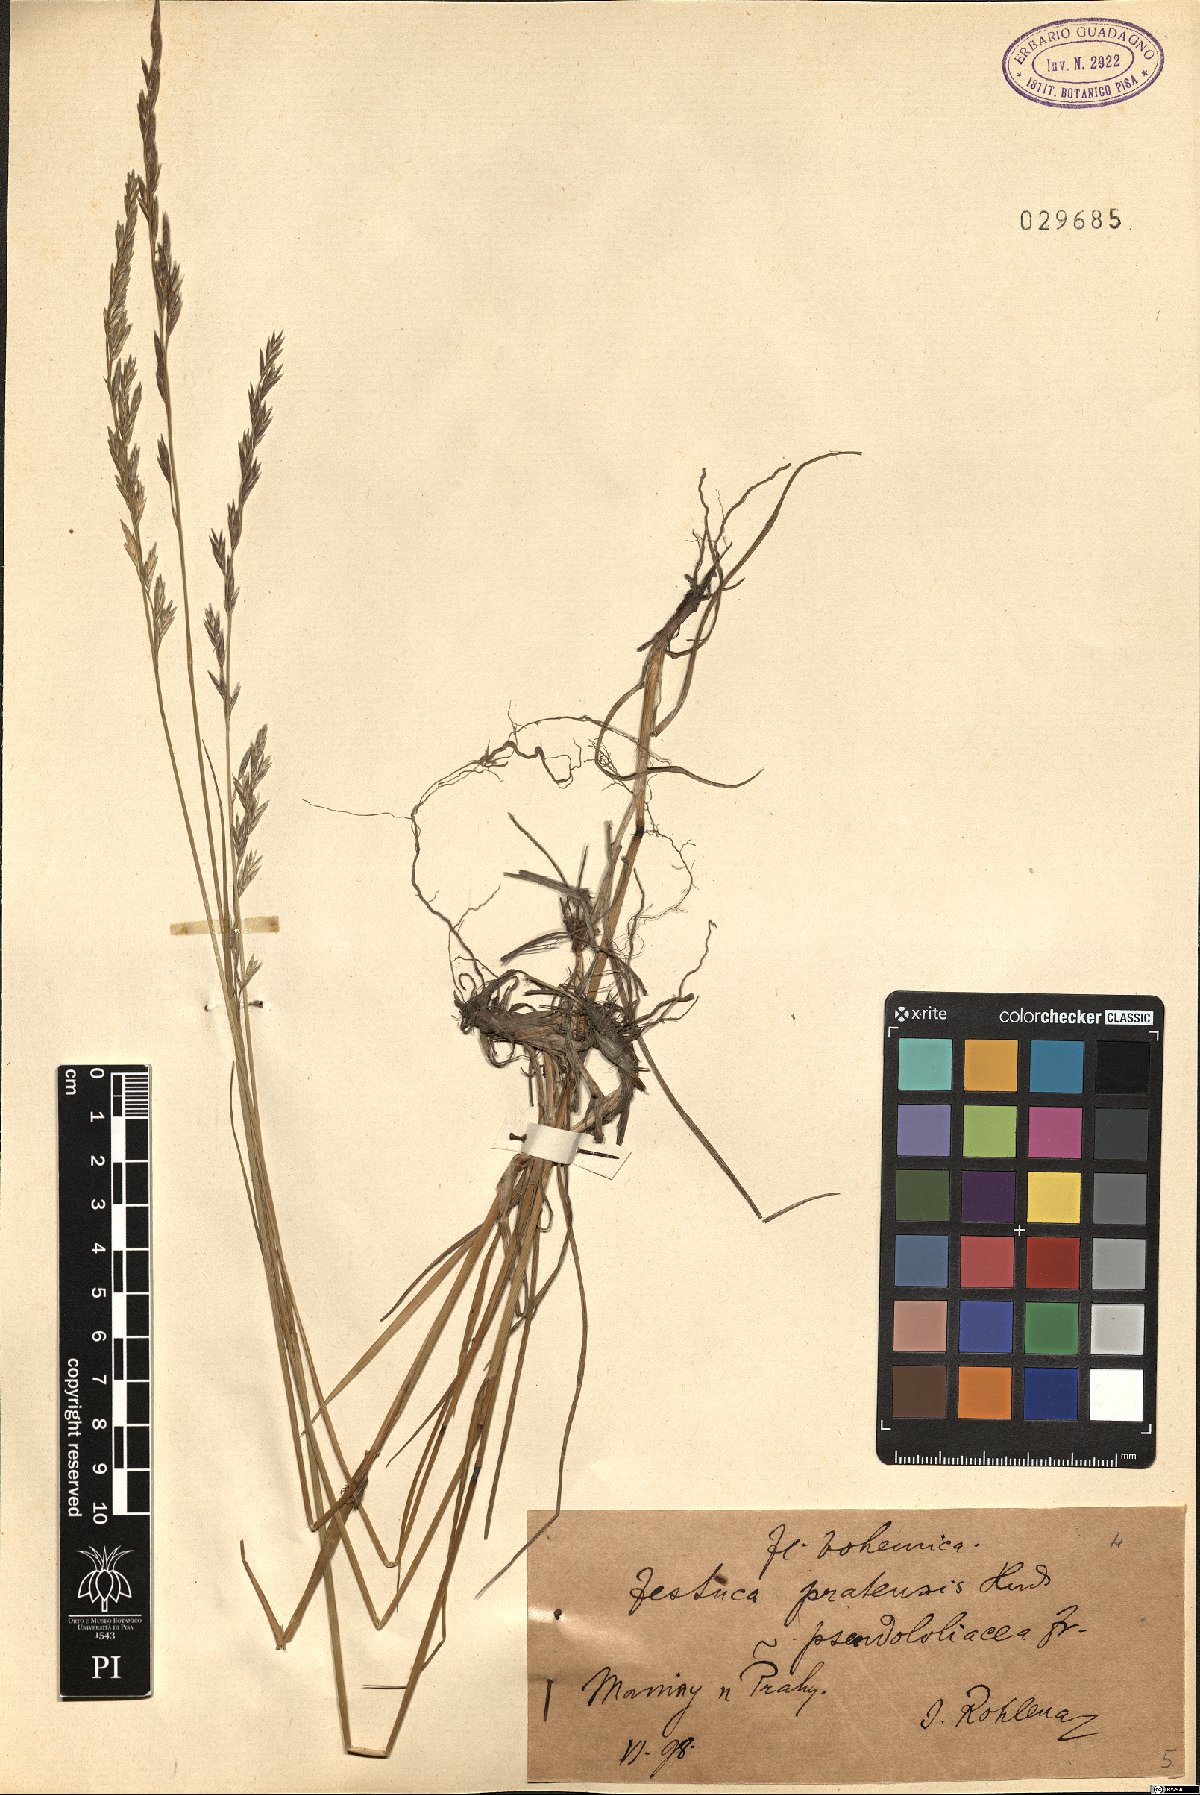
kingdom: Plantae
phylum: Tracheophyta
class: Liliopsida
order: Poales
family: Poaceae
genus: Lolium
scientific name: Lolium pratense
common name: Dover grass
